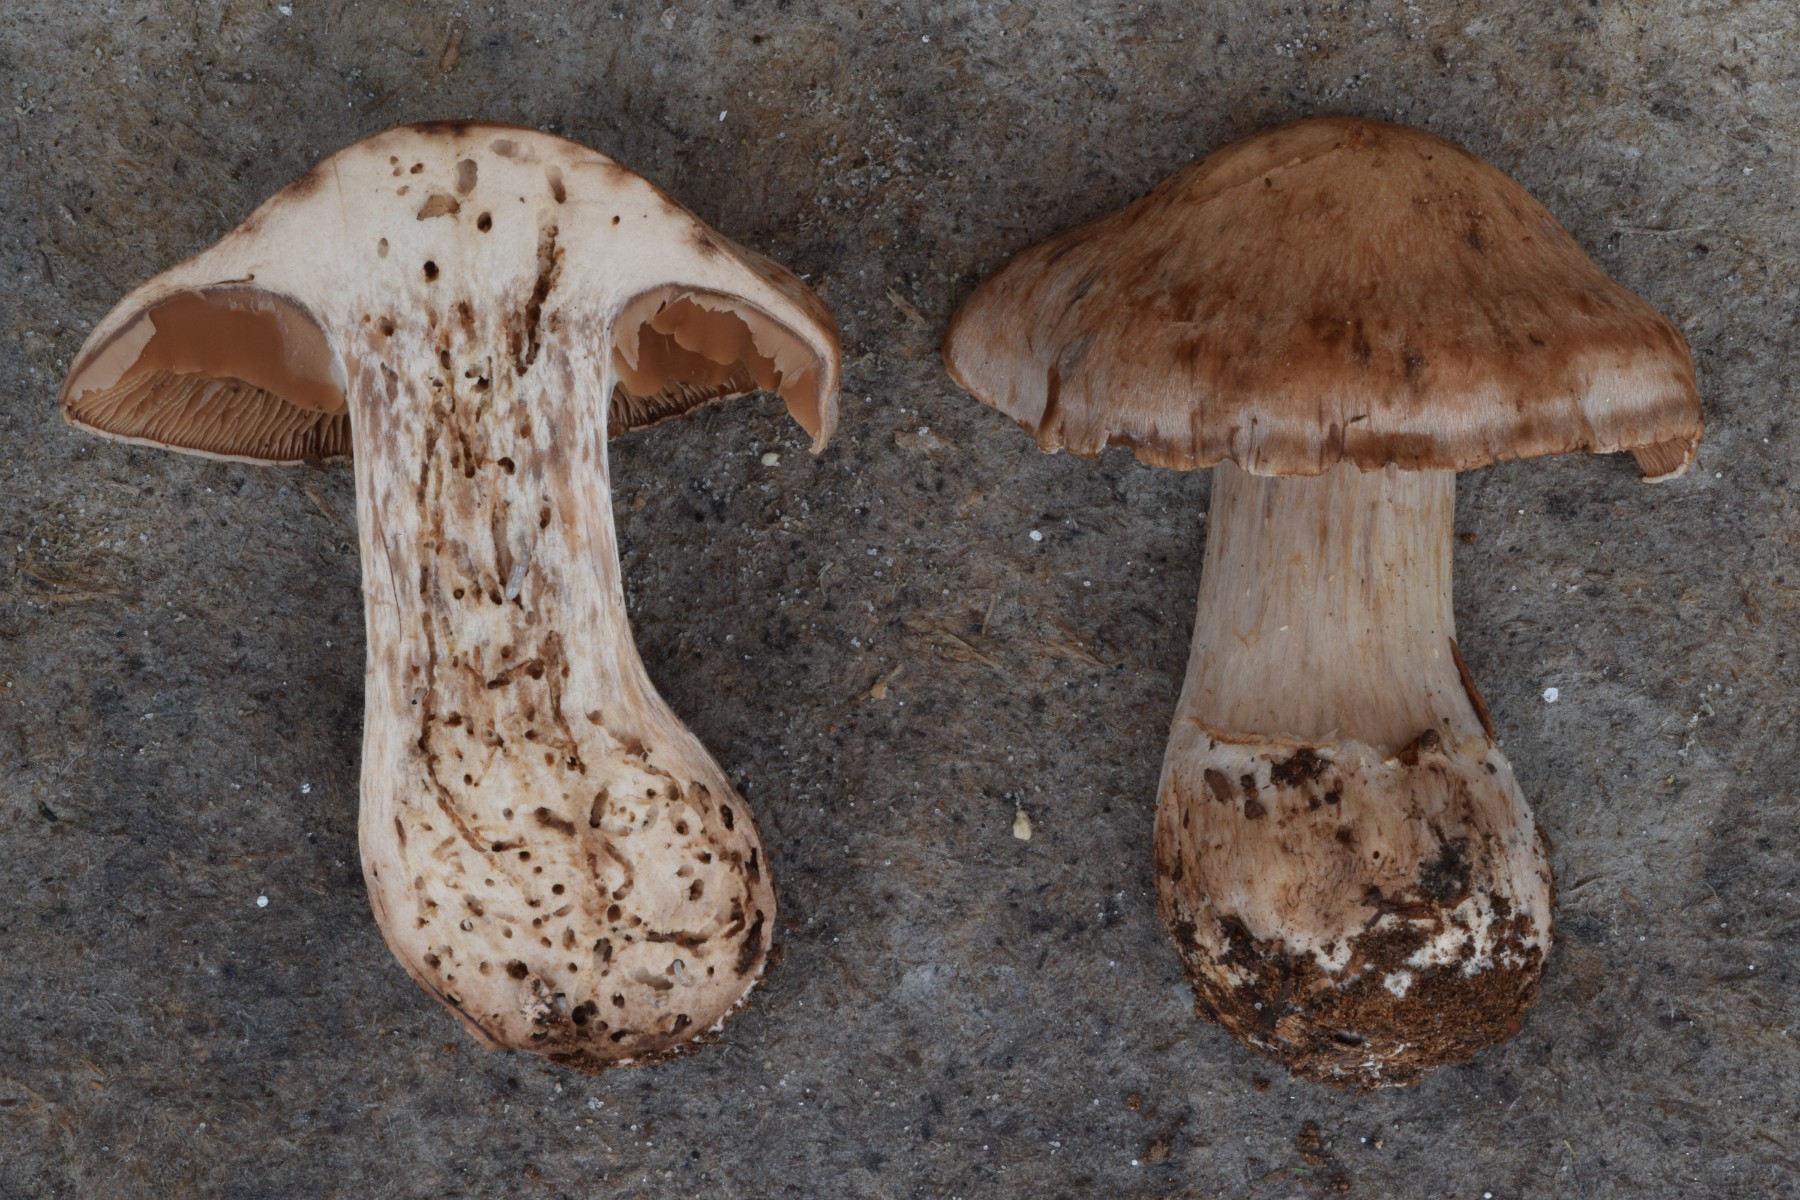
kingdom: Fungi
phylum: Basidiomycota
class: Agaricomycetes
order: Agaricales
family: Cortinariaceae
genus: Cortinarius
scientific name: Cortinarius sociatus
